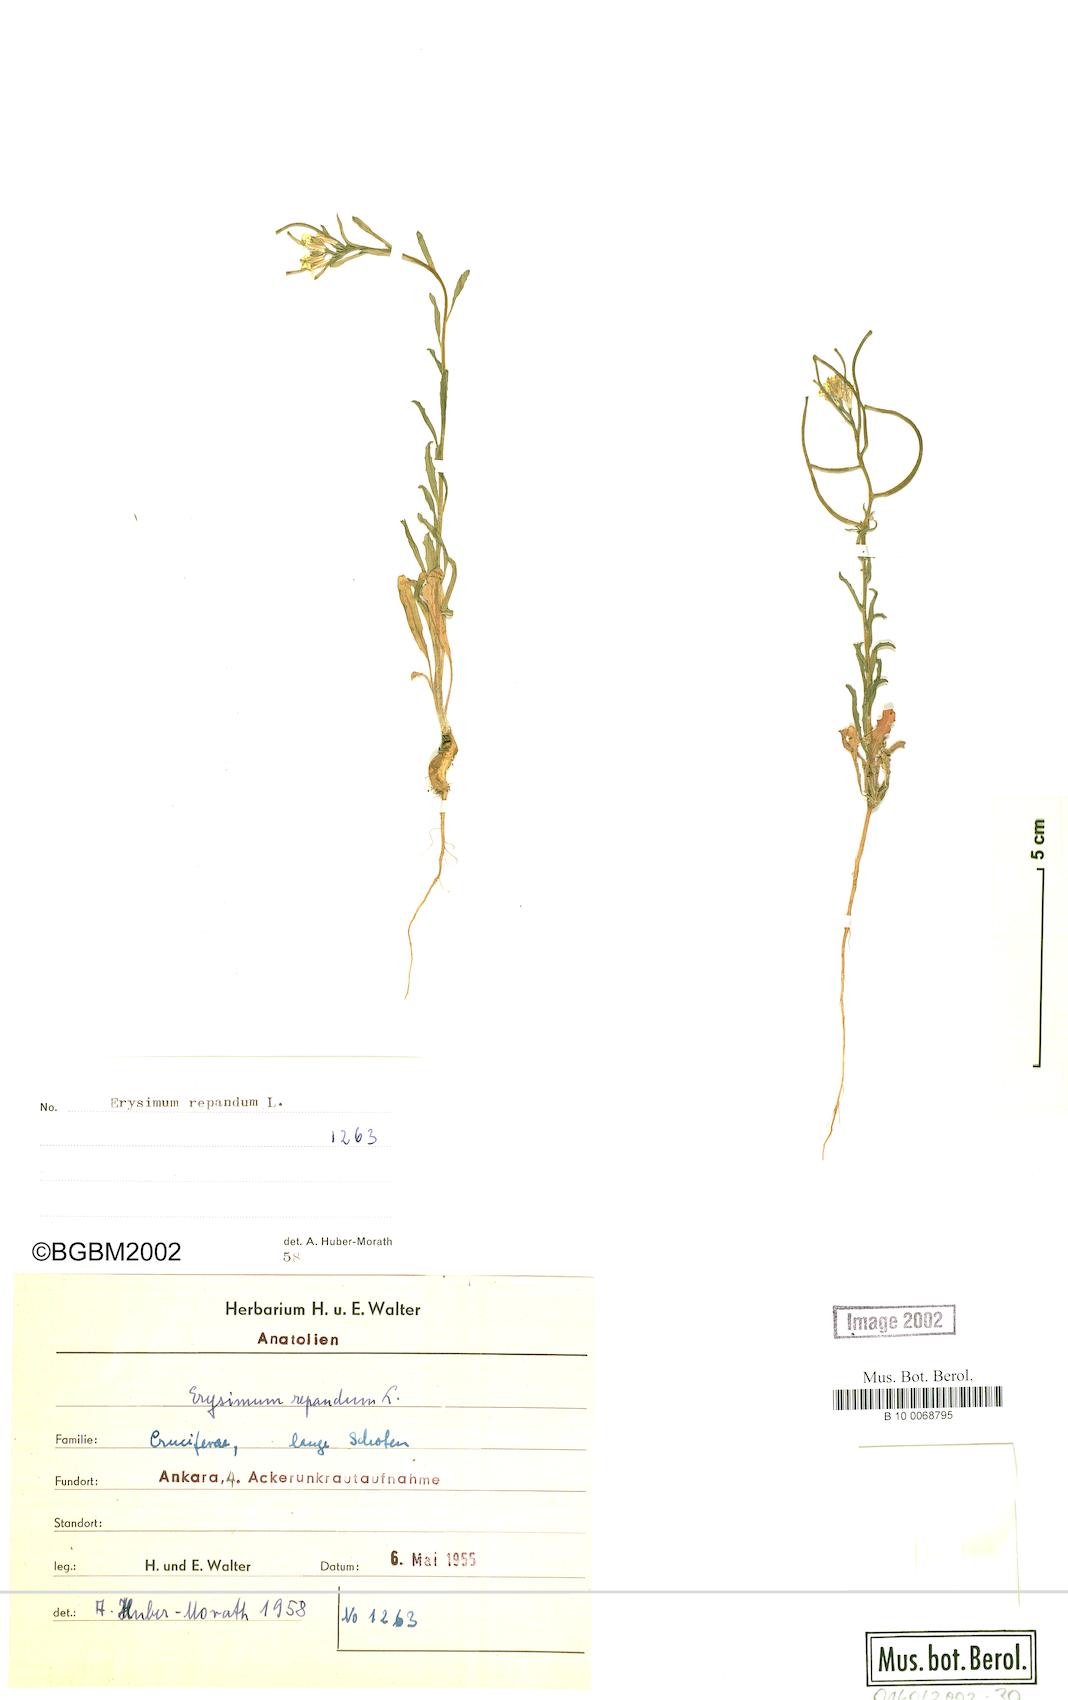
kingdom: Plantae
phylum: Tracheophyta
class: Magnoliopsida
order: Brassicales
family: Brassicaceae
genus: Erysimum
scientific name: Erysimum repandum
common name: Spreading wallflower
